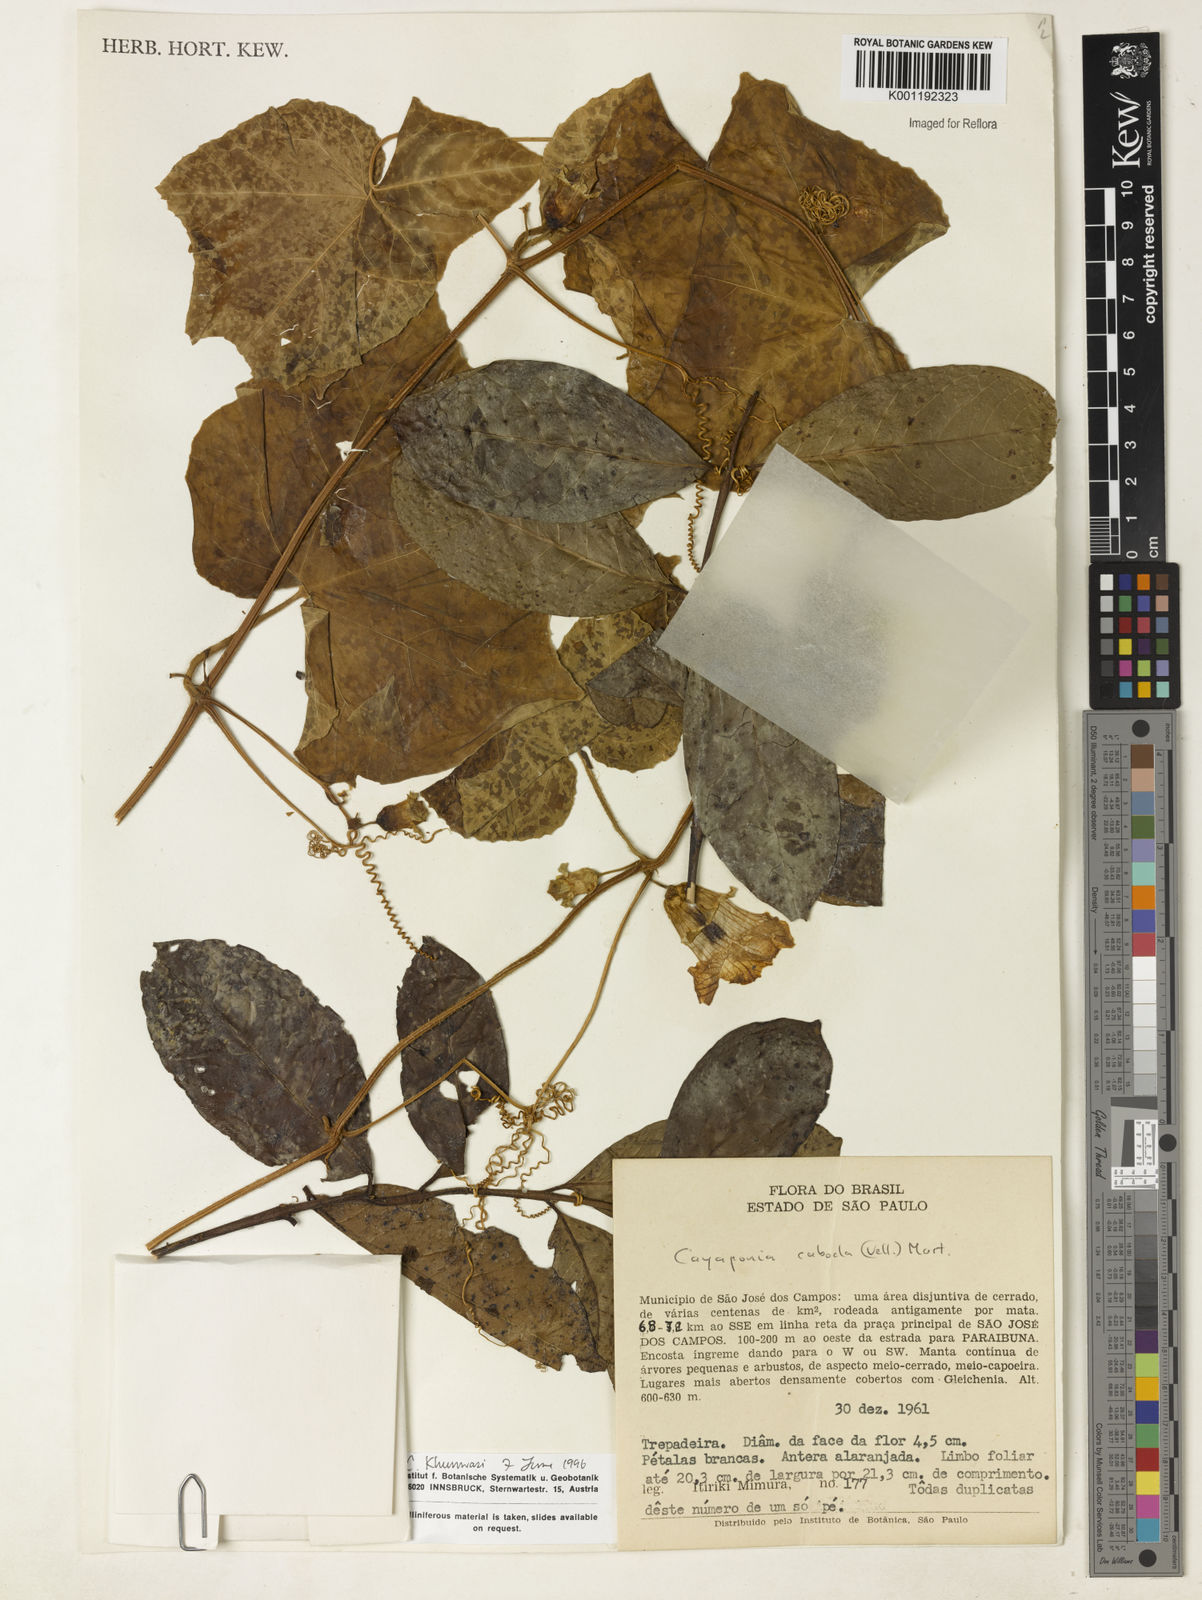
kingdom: Plantae
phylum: Tracheophyta
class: Magnoliopsida
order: Cucurbitales
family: Cucurbitaceae
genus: Cayaponia
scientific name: Cayaponia cabocla
